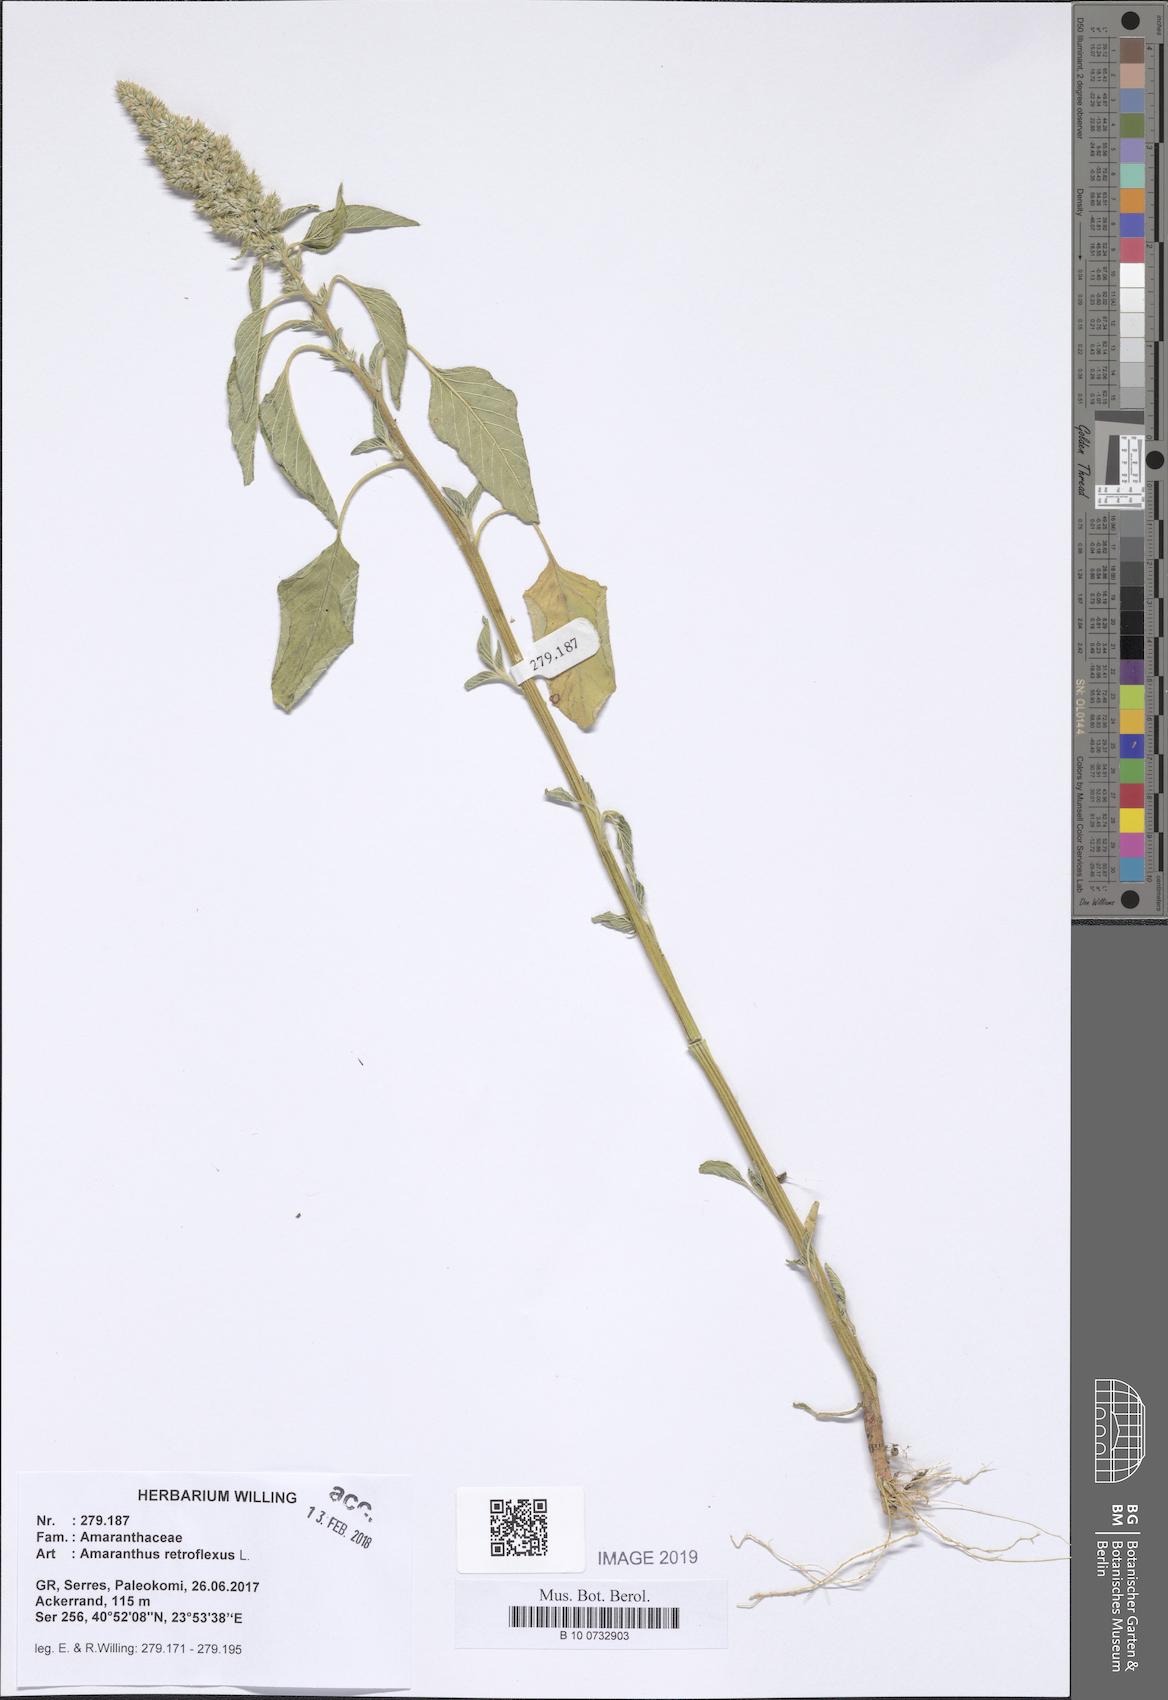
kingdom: Plantae
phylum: Tracheophyta
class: Magnoliopsida
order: Caryophyllales
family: Amaranthaceae
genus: Amaranthus
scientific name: Amaranthus retroflexus
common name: Redroot amaranth
